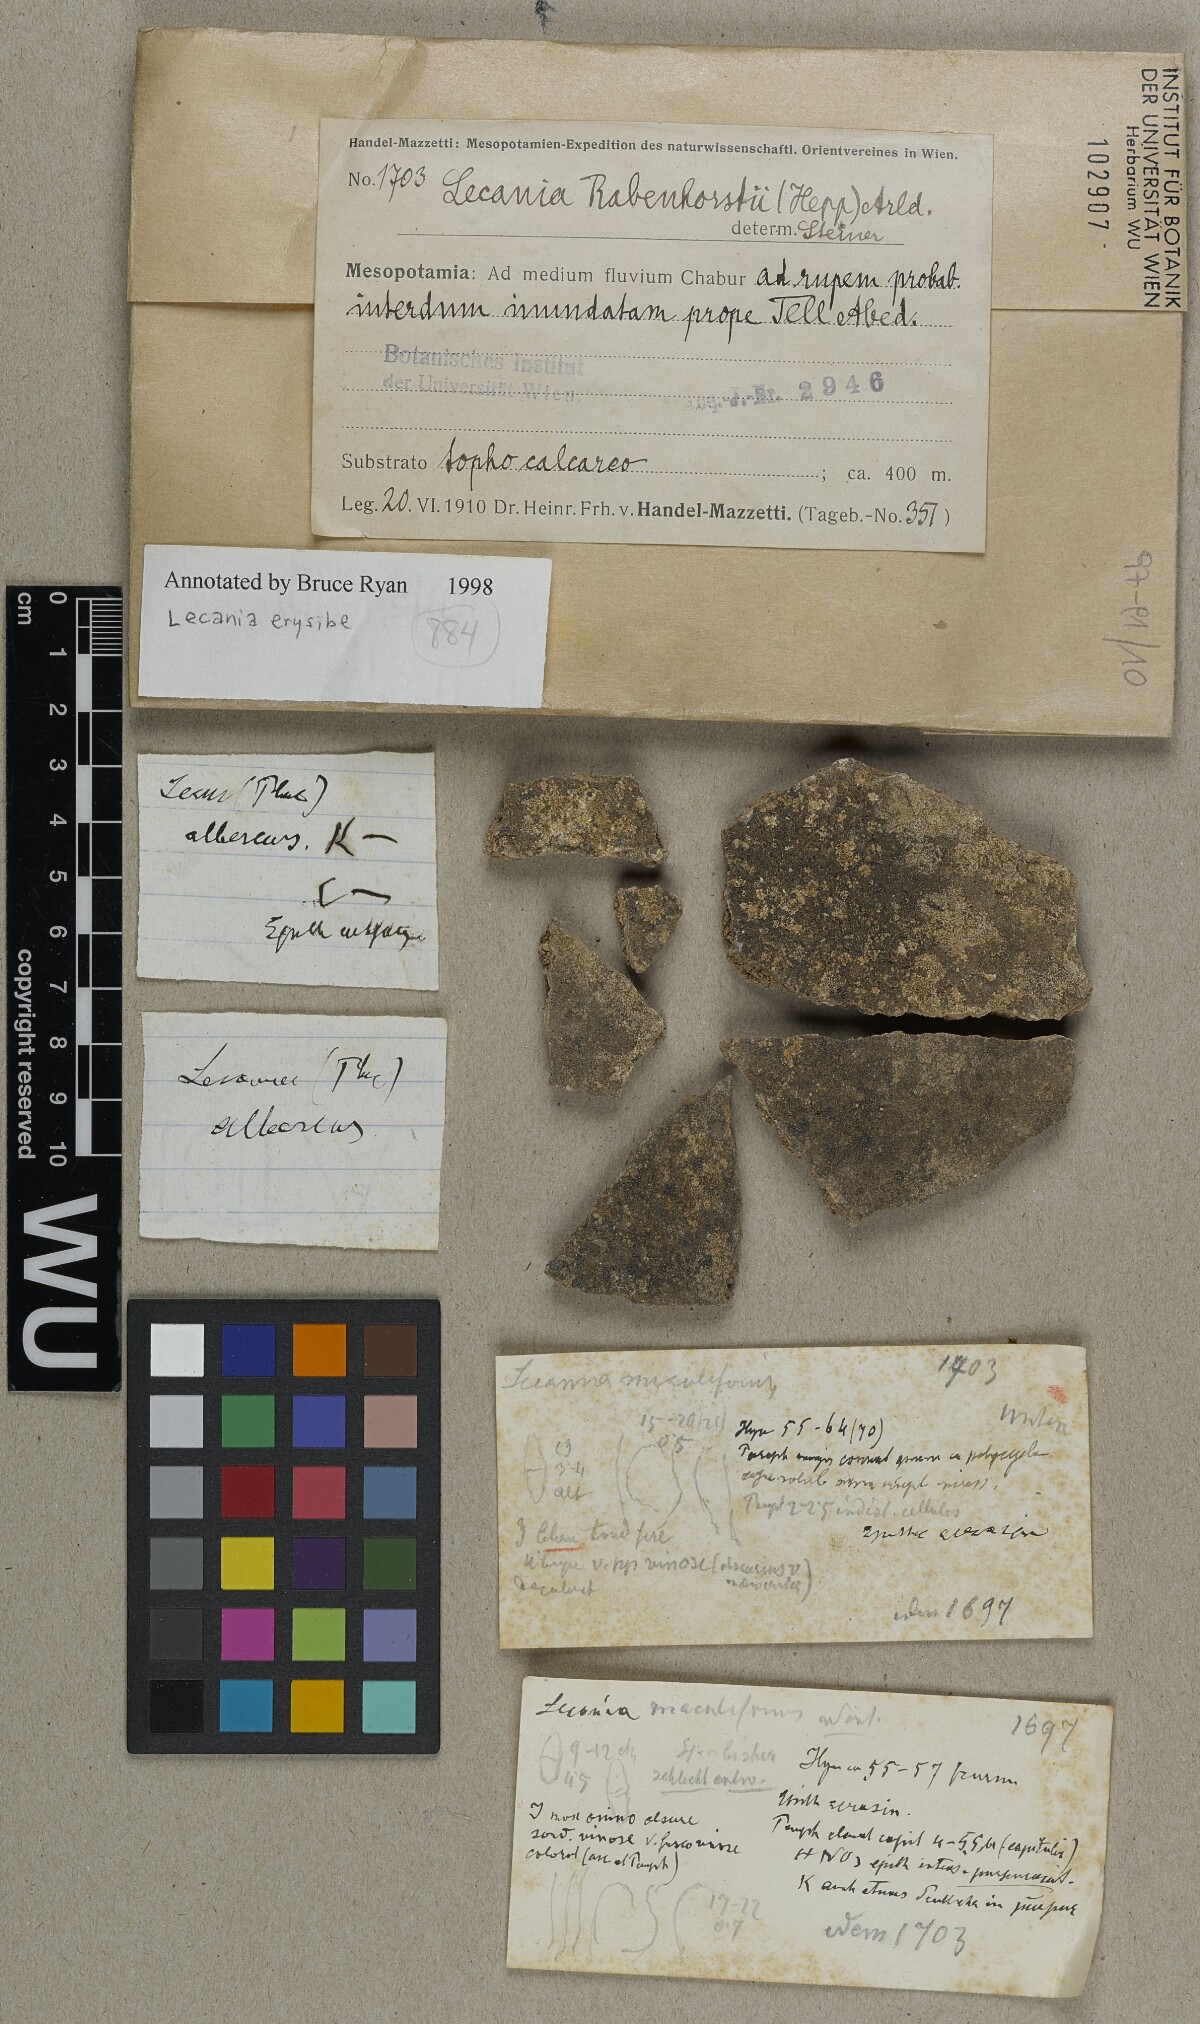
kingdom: Fungi
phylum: Ascomycota
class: Lecanoromycetes
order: Lecanorales
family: Ramalinaceae
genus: Lecania
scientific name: Lecania erysibe
